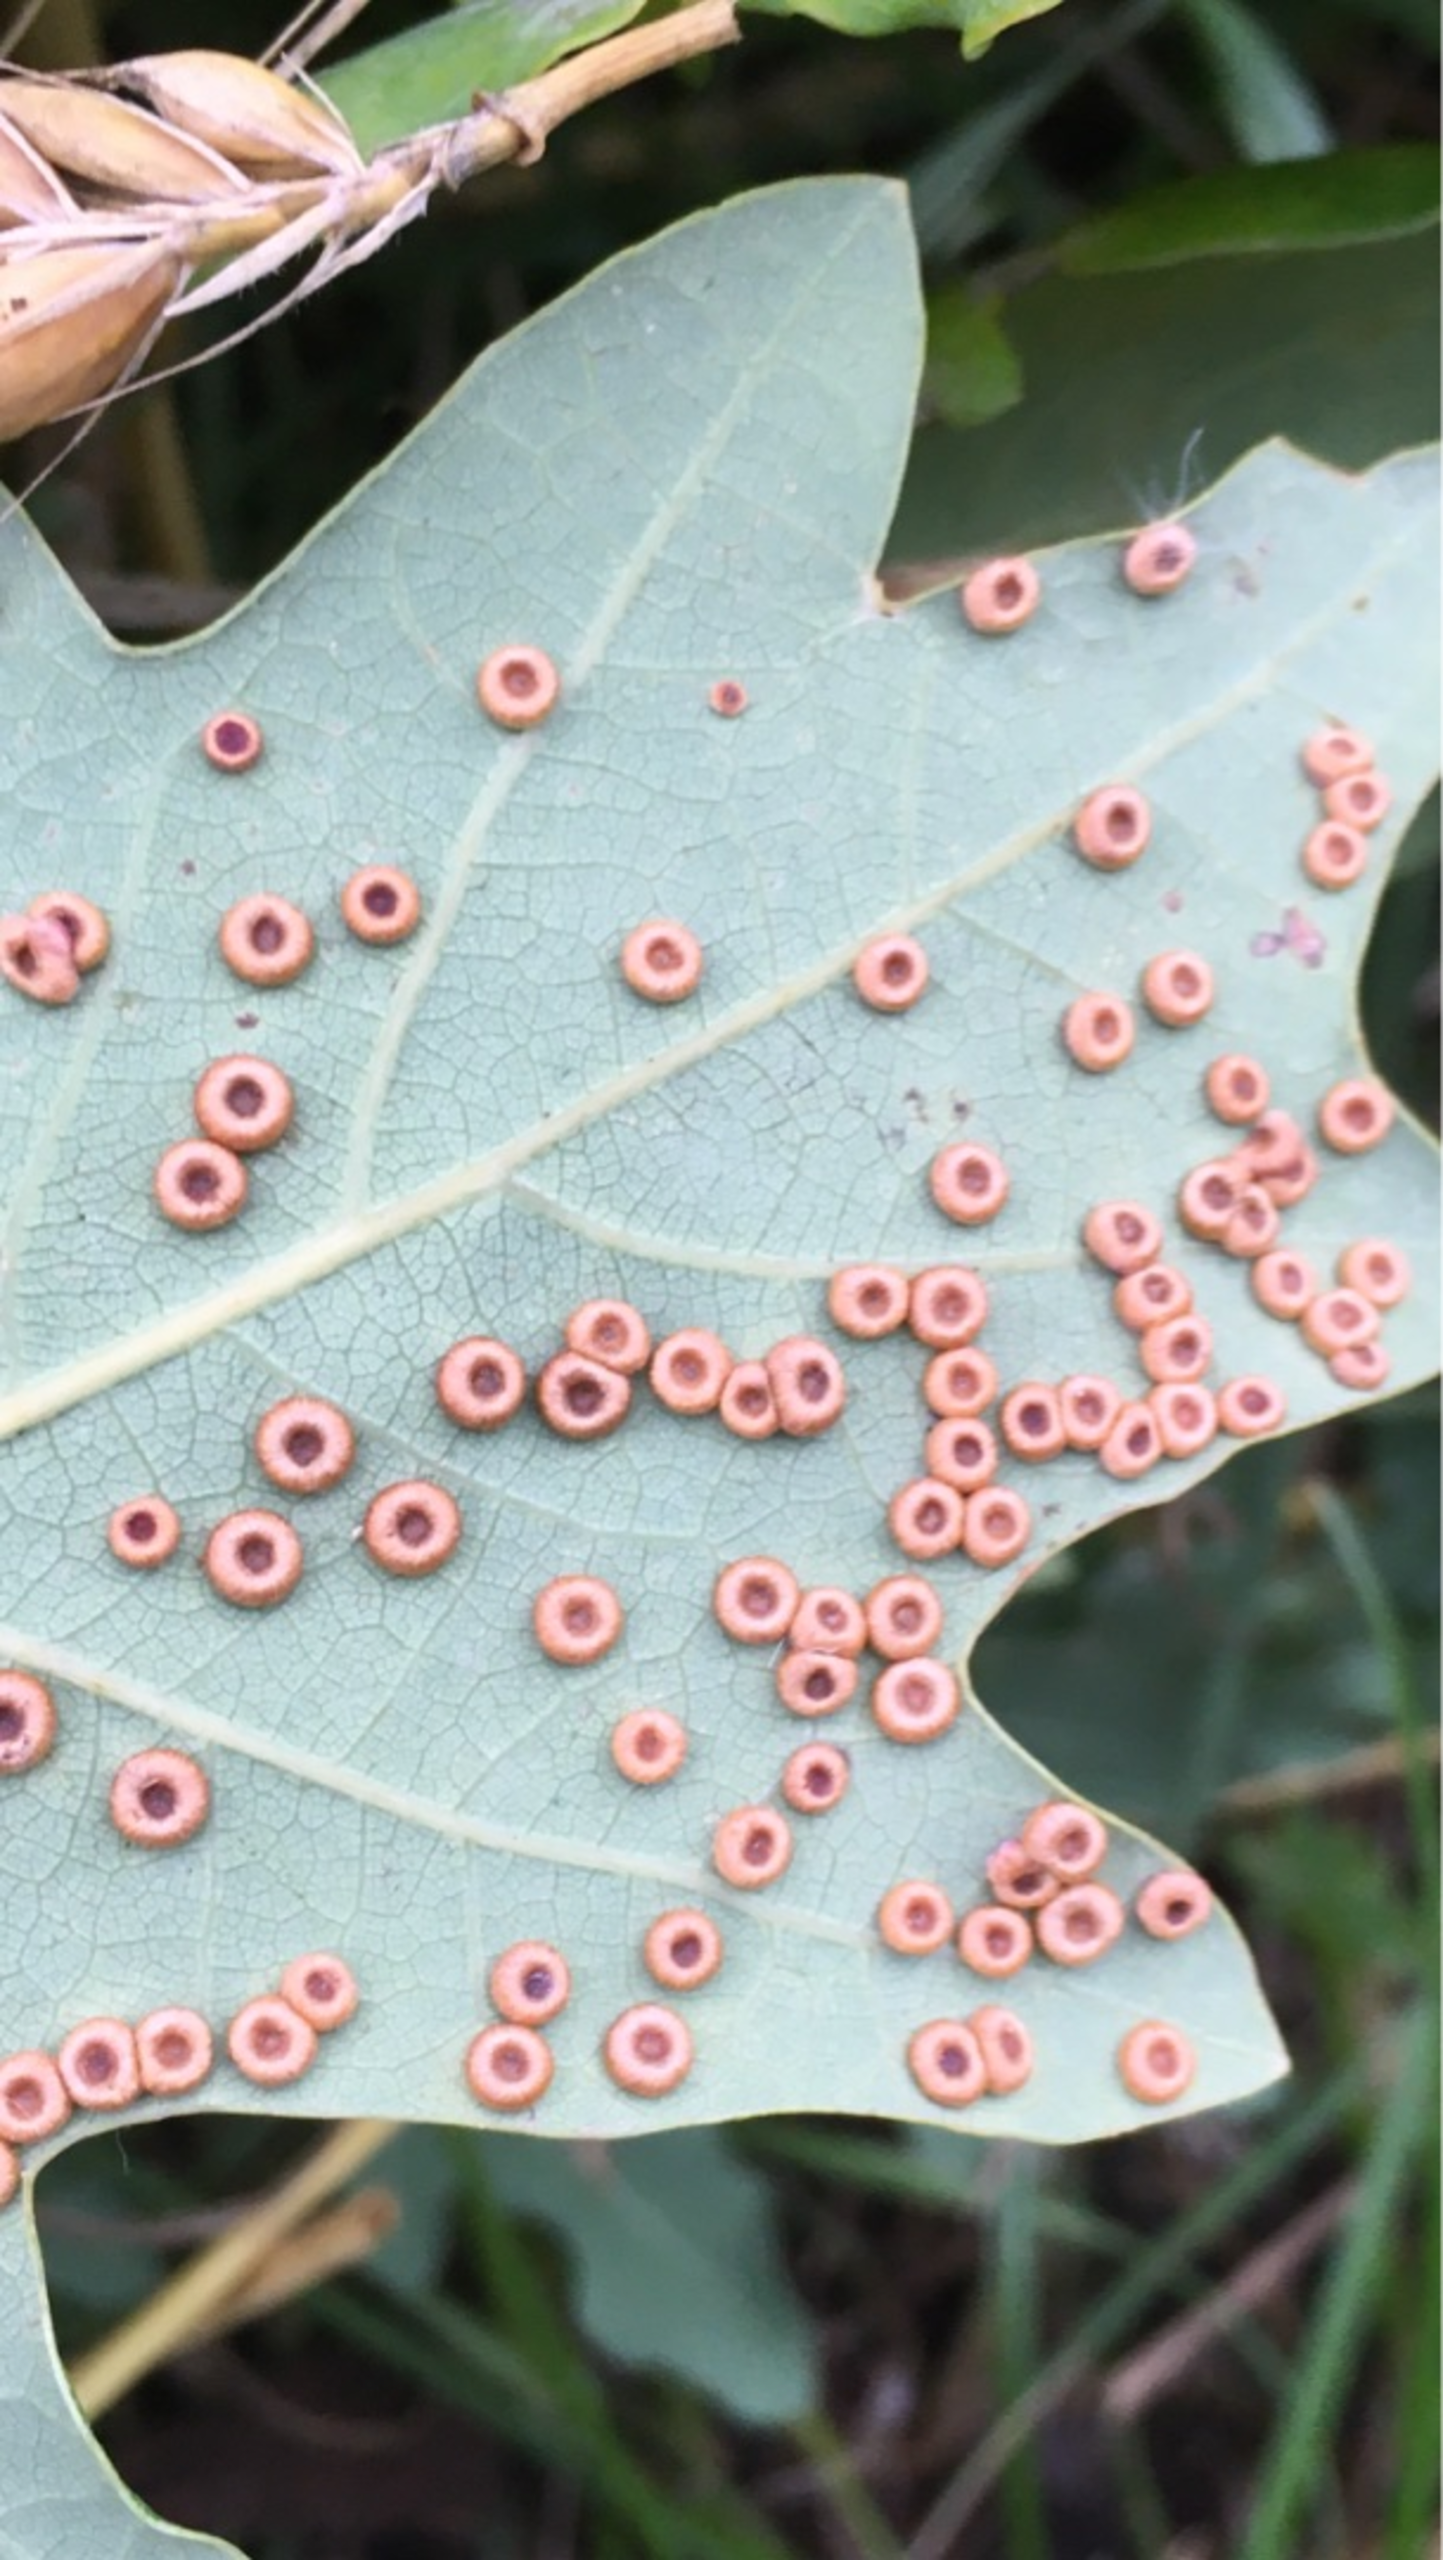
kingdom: Animalia
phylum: Arthropoda
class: Insecta
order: Hymenoptera
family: Cynipidae
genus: Neuroterus
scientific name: Neuroterus numismalis
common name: Knapgalhveps
